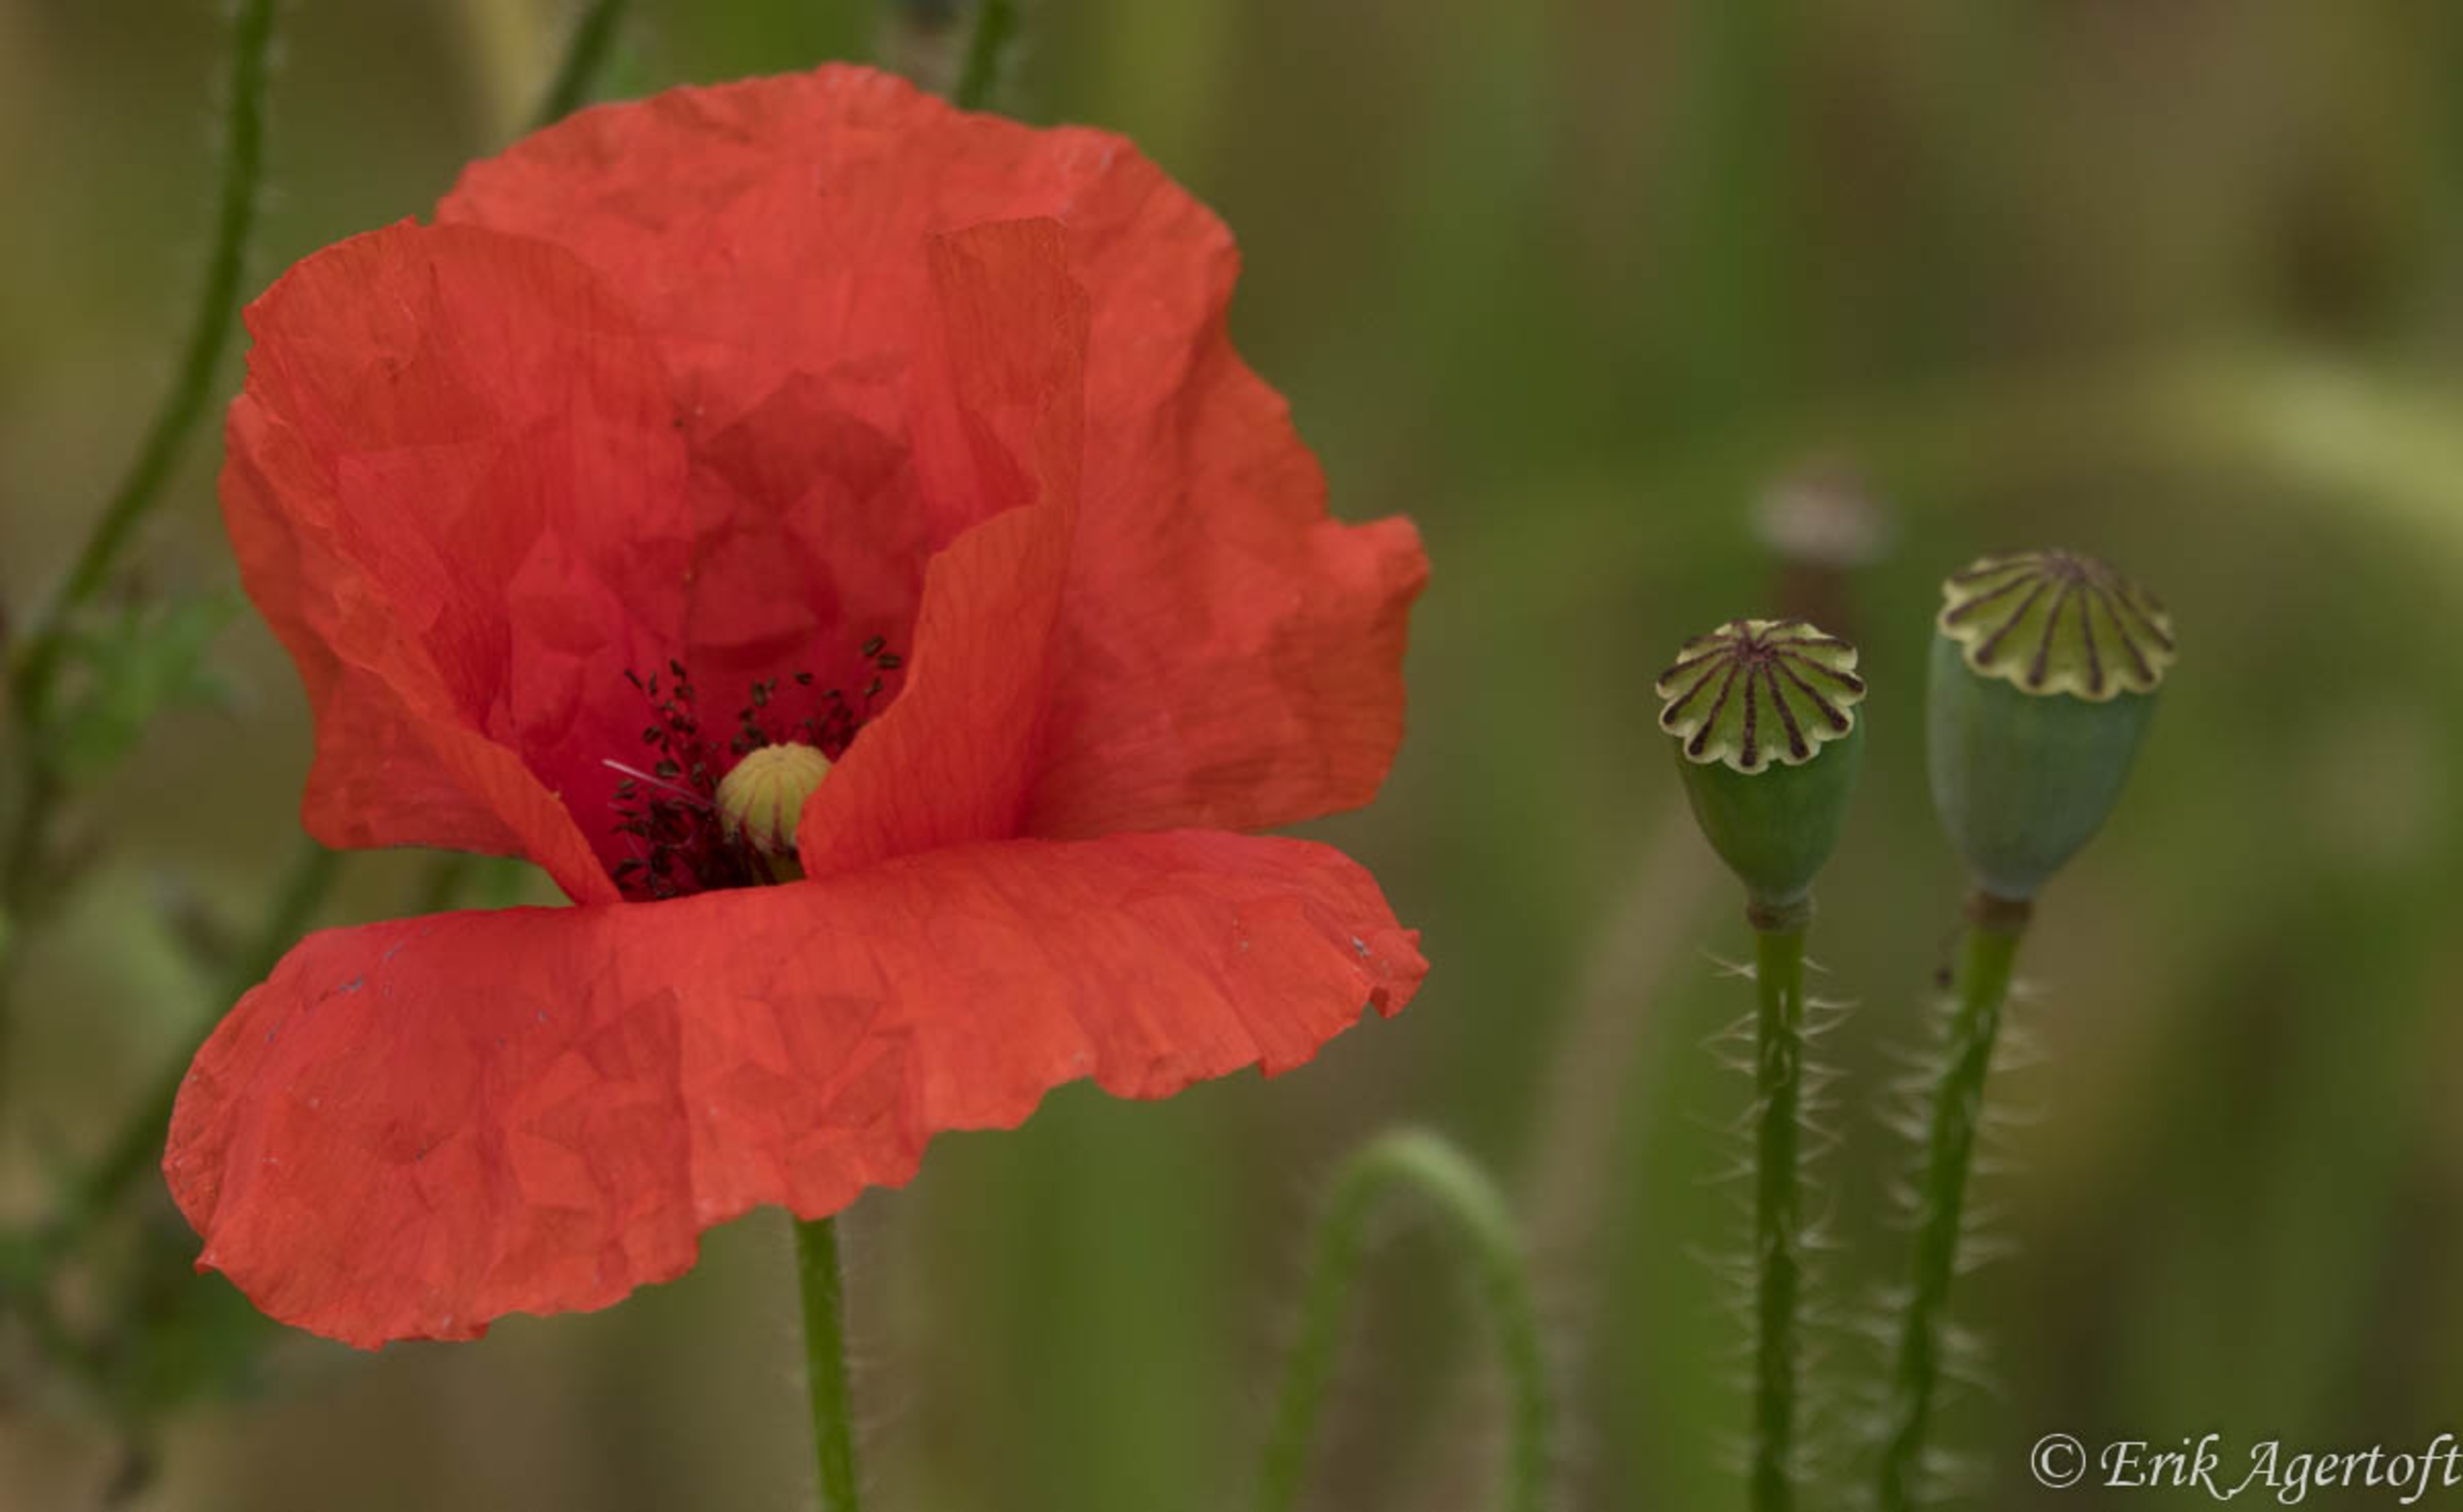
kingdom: Plantae
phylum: Tracheophyta
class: Magnoliopsida
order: Ranunculales
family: Papaveraceae
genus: Papaver
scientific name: Papaver rhoeas
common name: Korn-valmue
